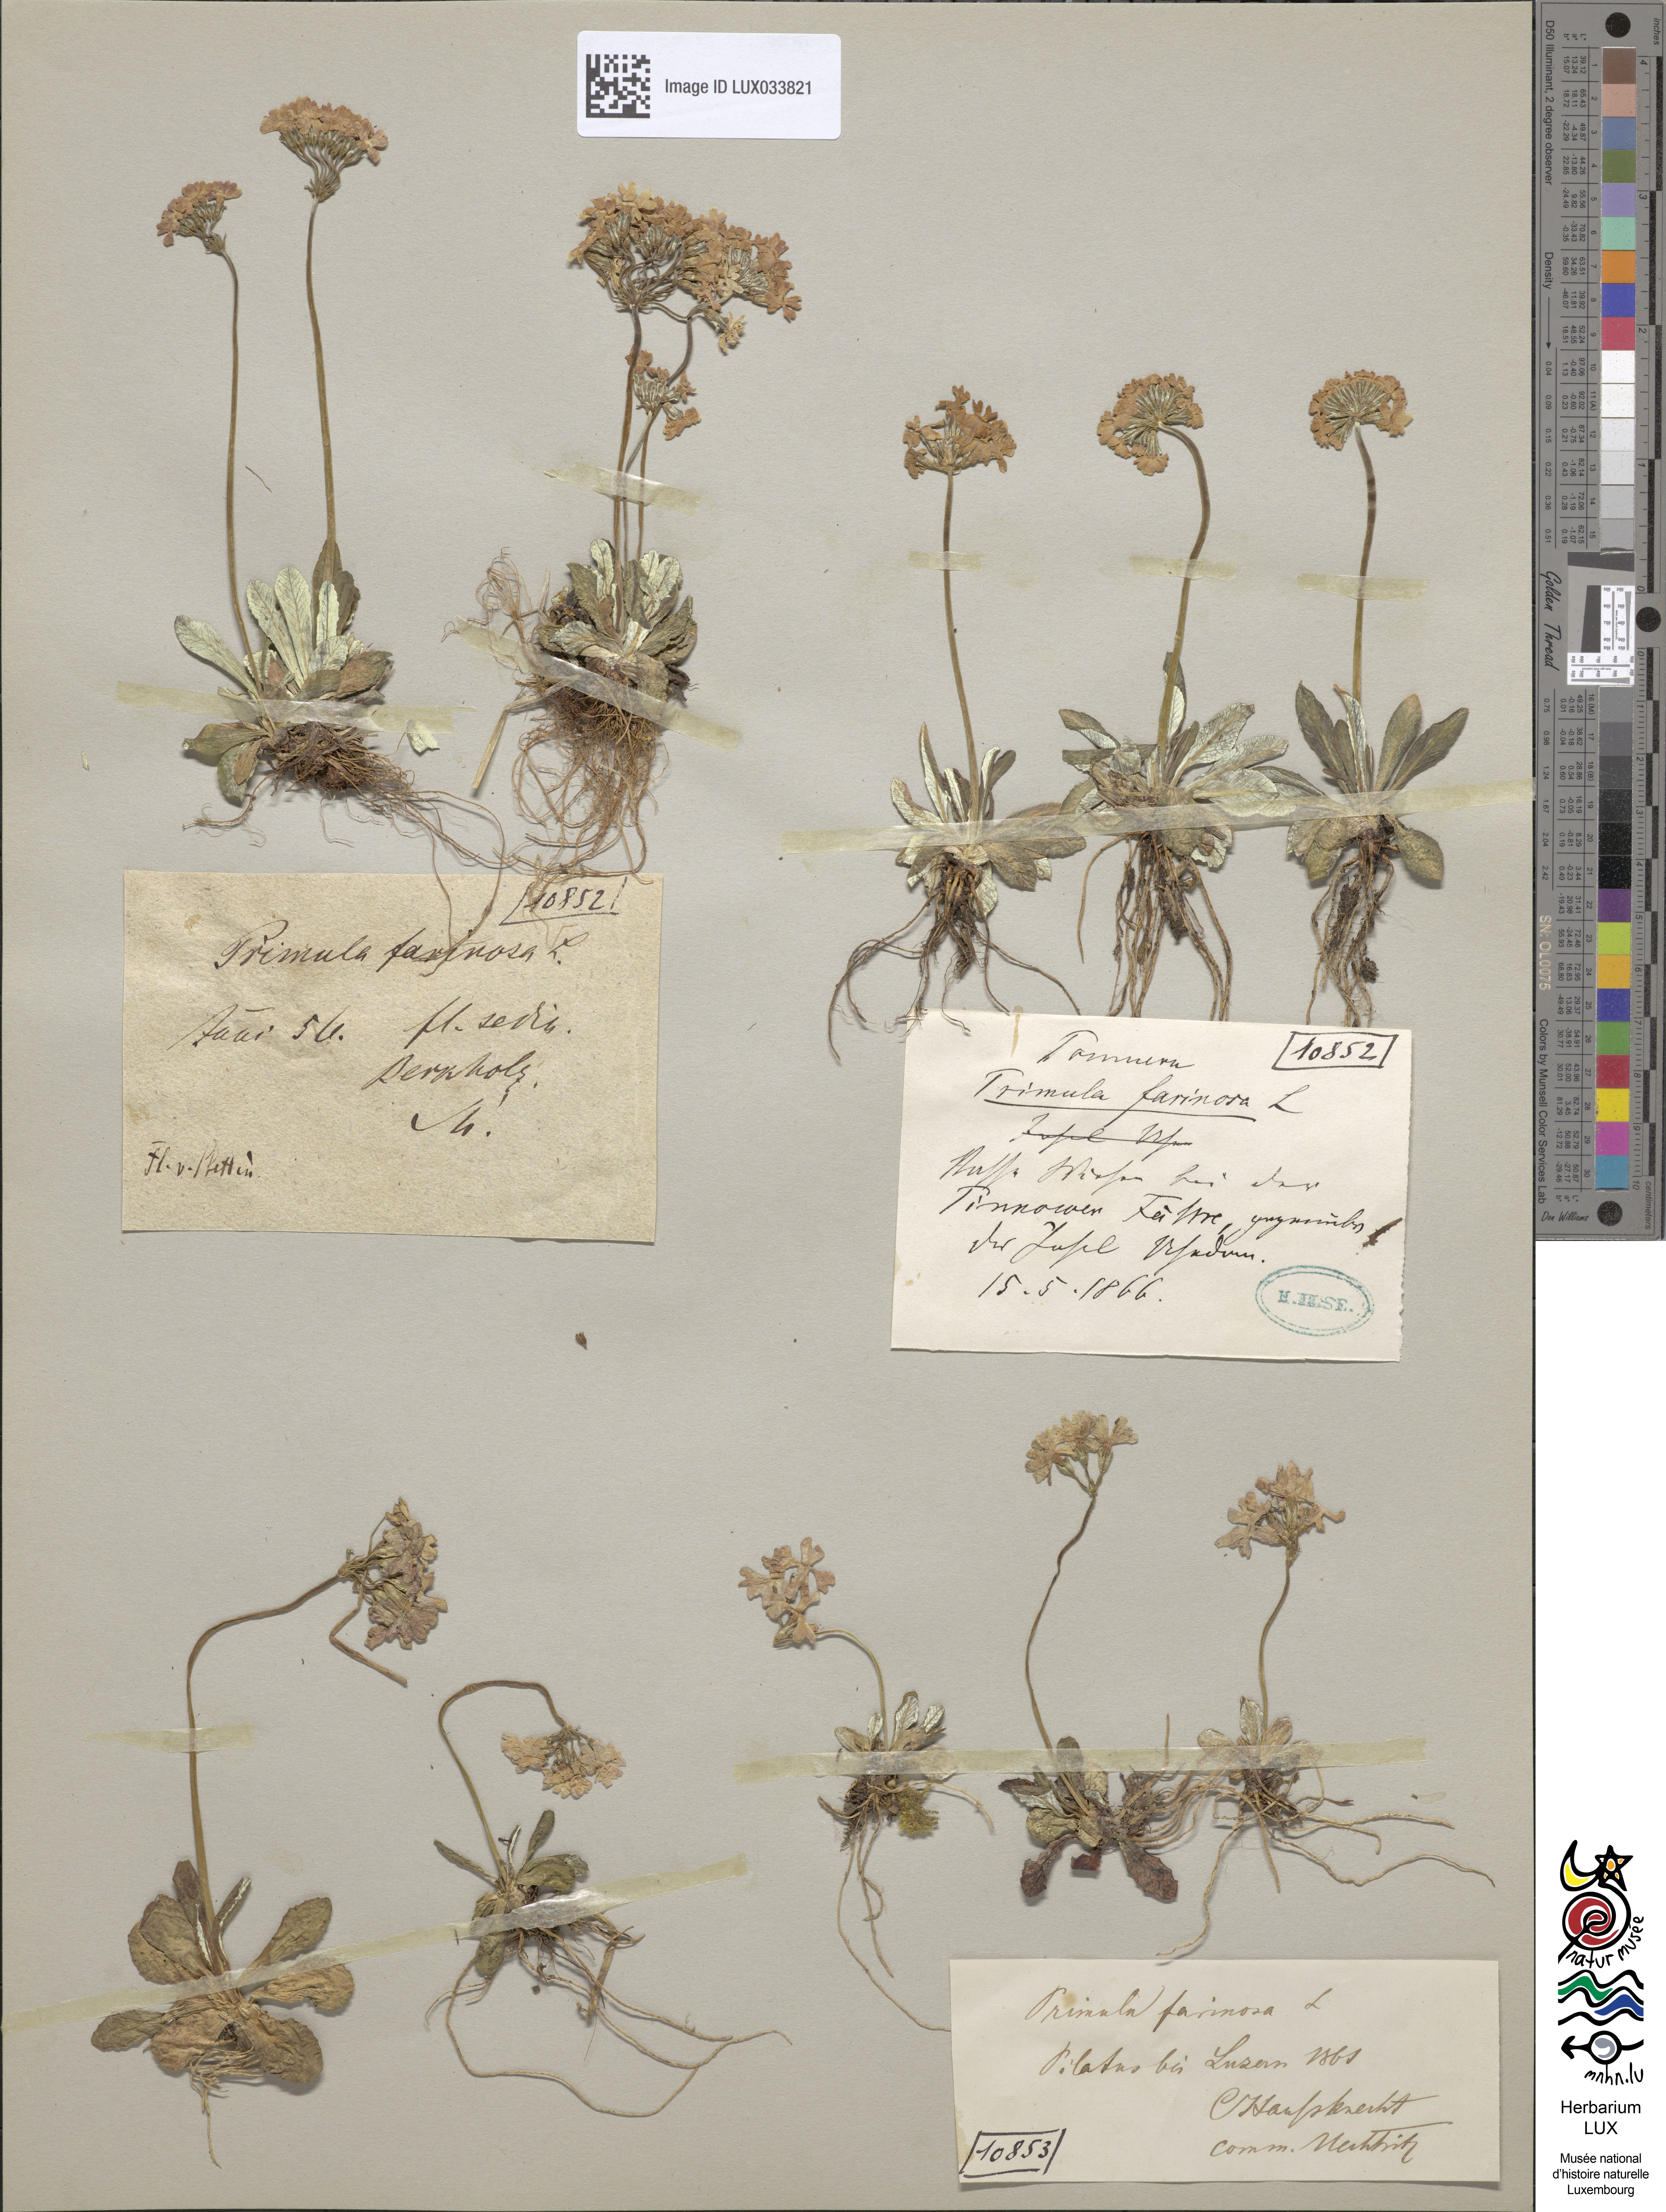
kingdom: Plantae
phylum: Tracheophyta
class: Magnoliopsida
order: Ericales
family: Primulaceae
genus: Primula
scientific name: Primula farinosa
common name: Bird's-eye primrose
